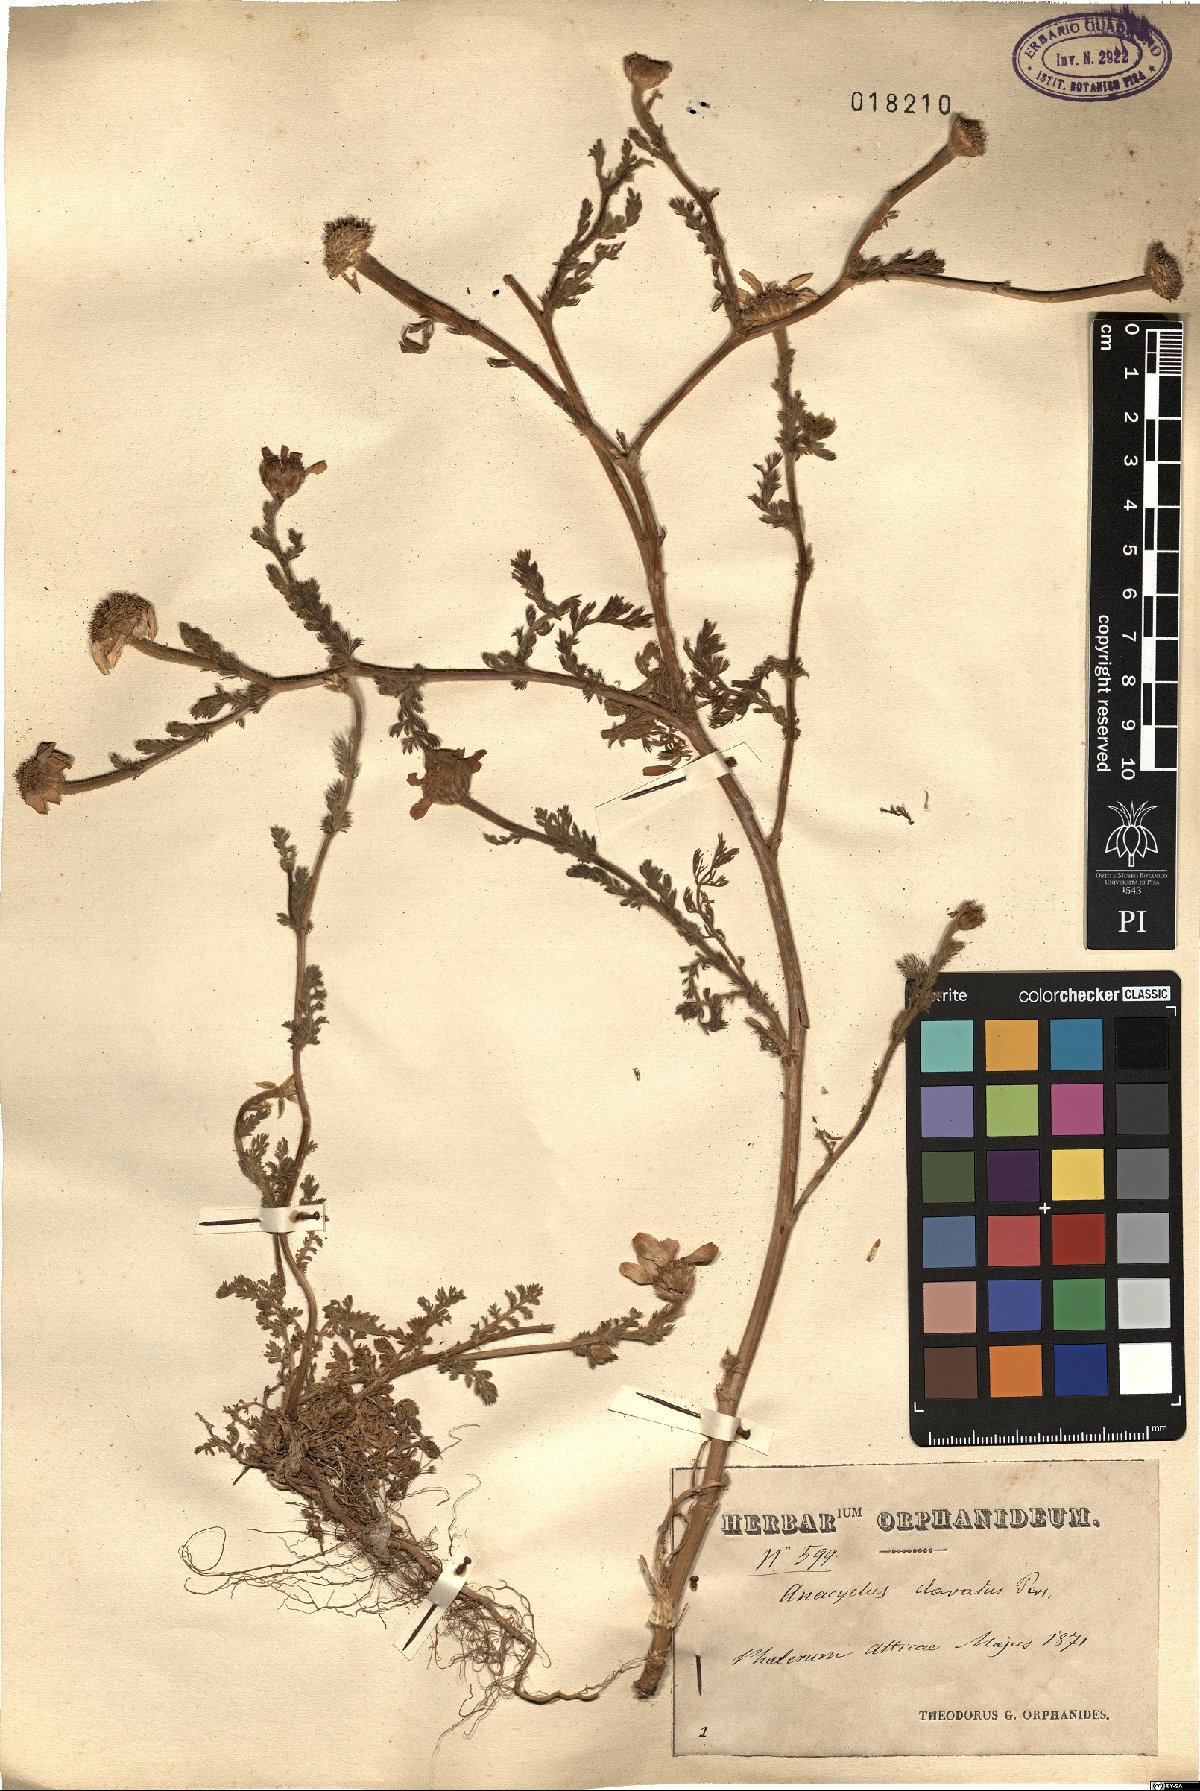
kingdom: Plantae
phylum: Tracheophyta
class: Magnoliopsida
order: Asterales
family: Asteraceae
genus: Anacyclus
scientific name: Anacyclus clavatus
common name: Whitebuttons
